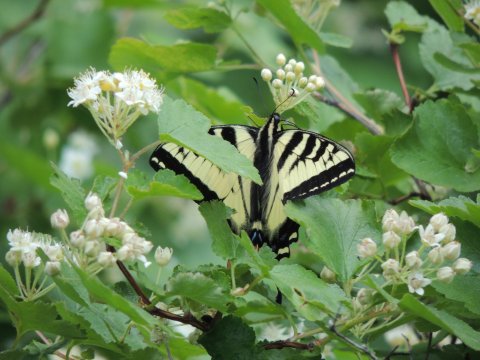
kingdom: Animalia
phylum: Arthropoda
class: Insecta
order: Lepidoptera
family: Papilionidae
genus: Pterourus
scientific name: Pterourus rutulus
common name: Western Tiger Swallowtail
